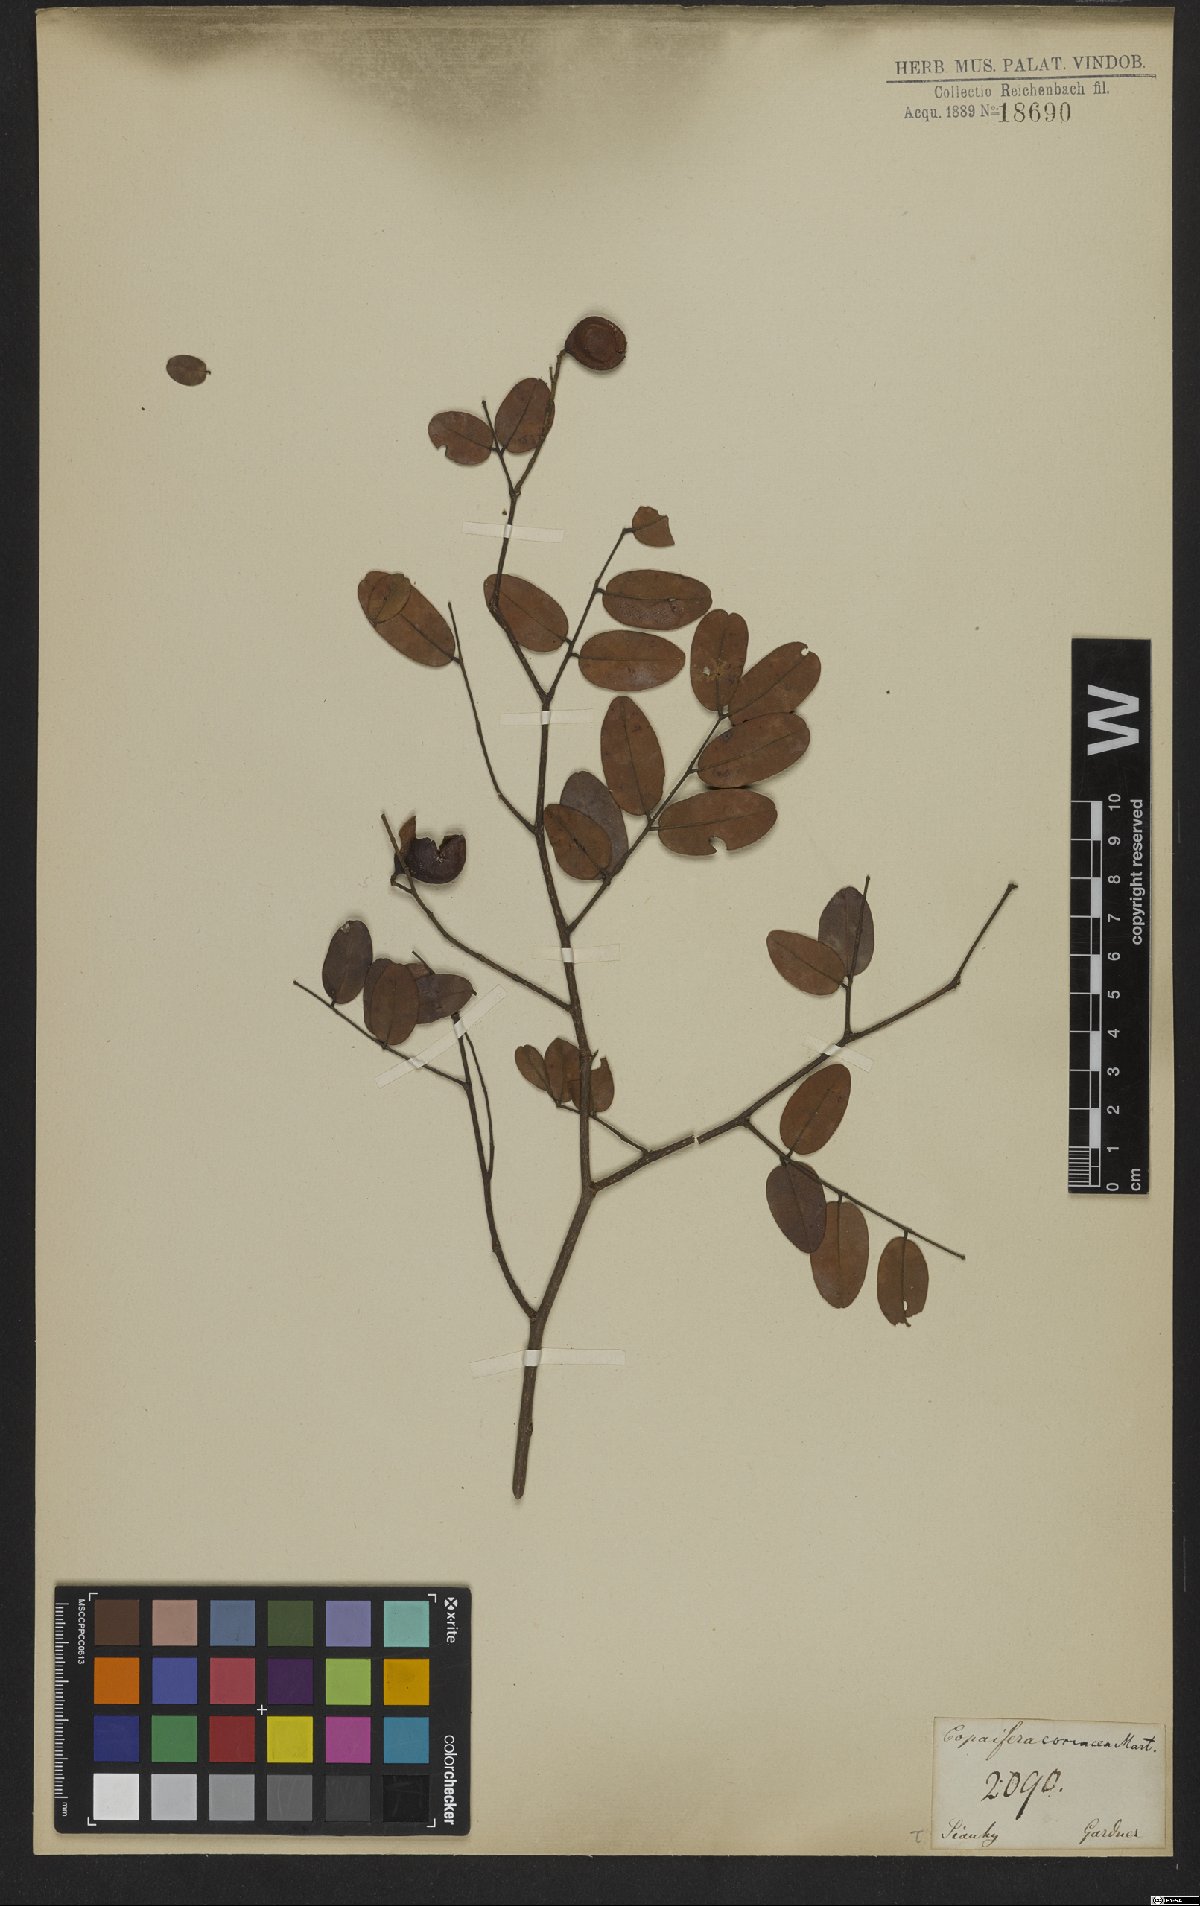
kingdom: Plantae
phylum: Tracheophyta
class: Magnoliopsida
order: Fabales
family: Fabaceae
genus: Copaifera
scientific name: Copaifera coriacea
